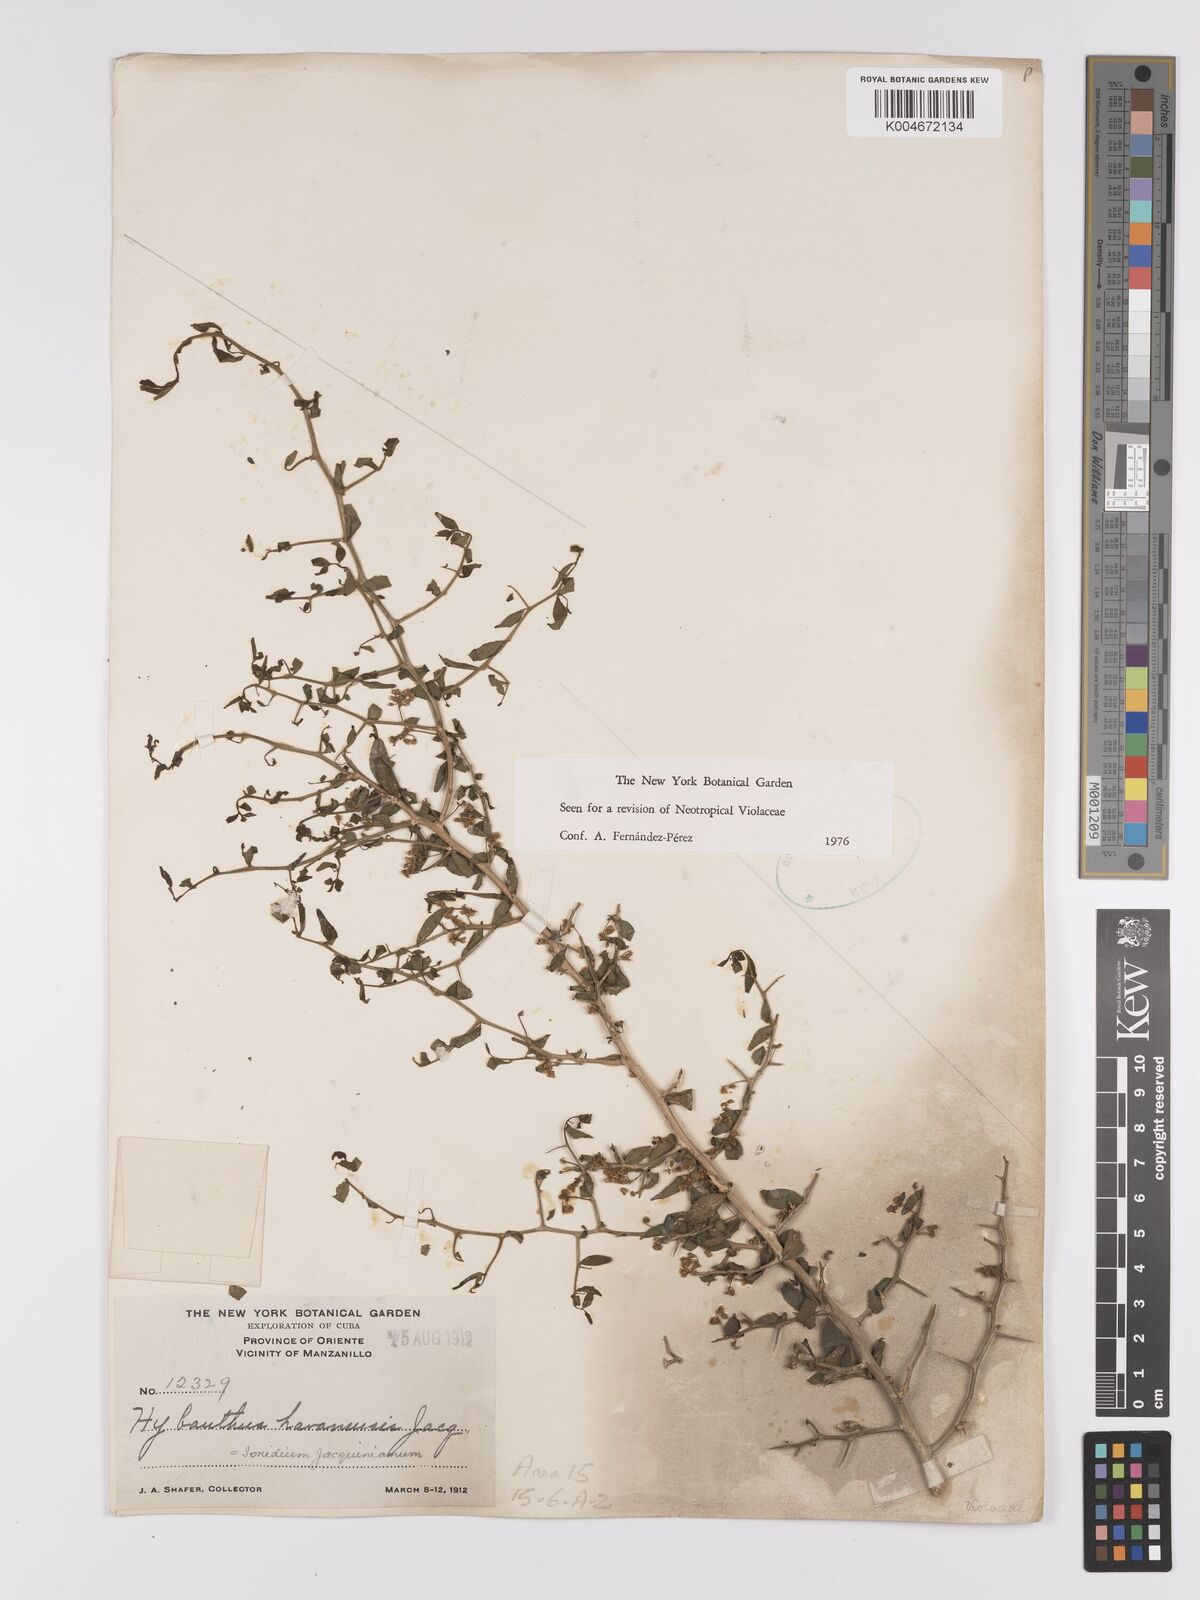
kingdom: Plantae
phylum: Tracheophyta
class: Magnoliopsida
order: Malpighiales
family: Violaceae
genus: Hybanthus
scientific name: Hybanthus havanensis
